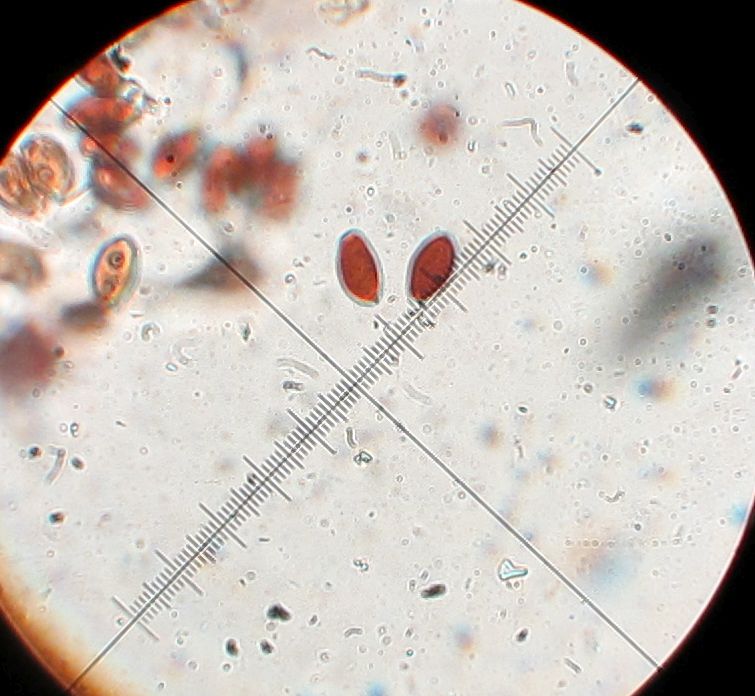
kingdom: Fungi
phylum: Basidiomycota
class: Agaricomycetes
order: Agaricales
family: Psathyrellaceae
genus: Coprinellus
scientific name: Coprinellus
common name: blækhat
